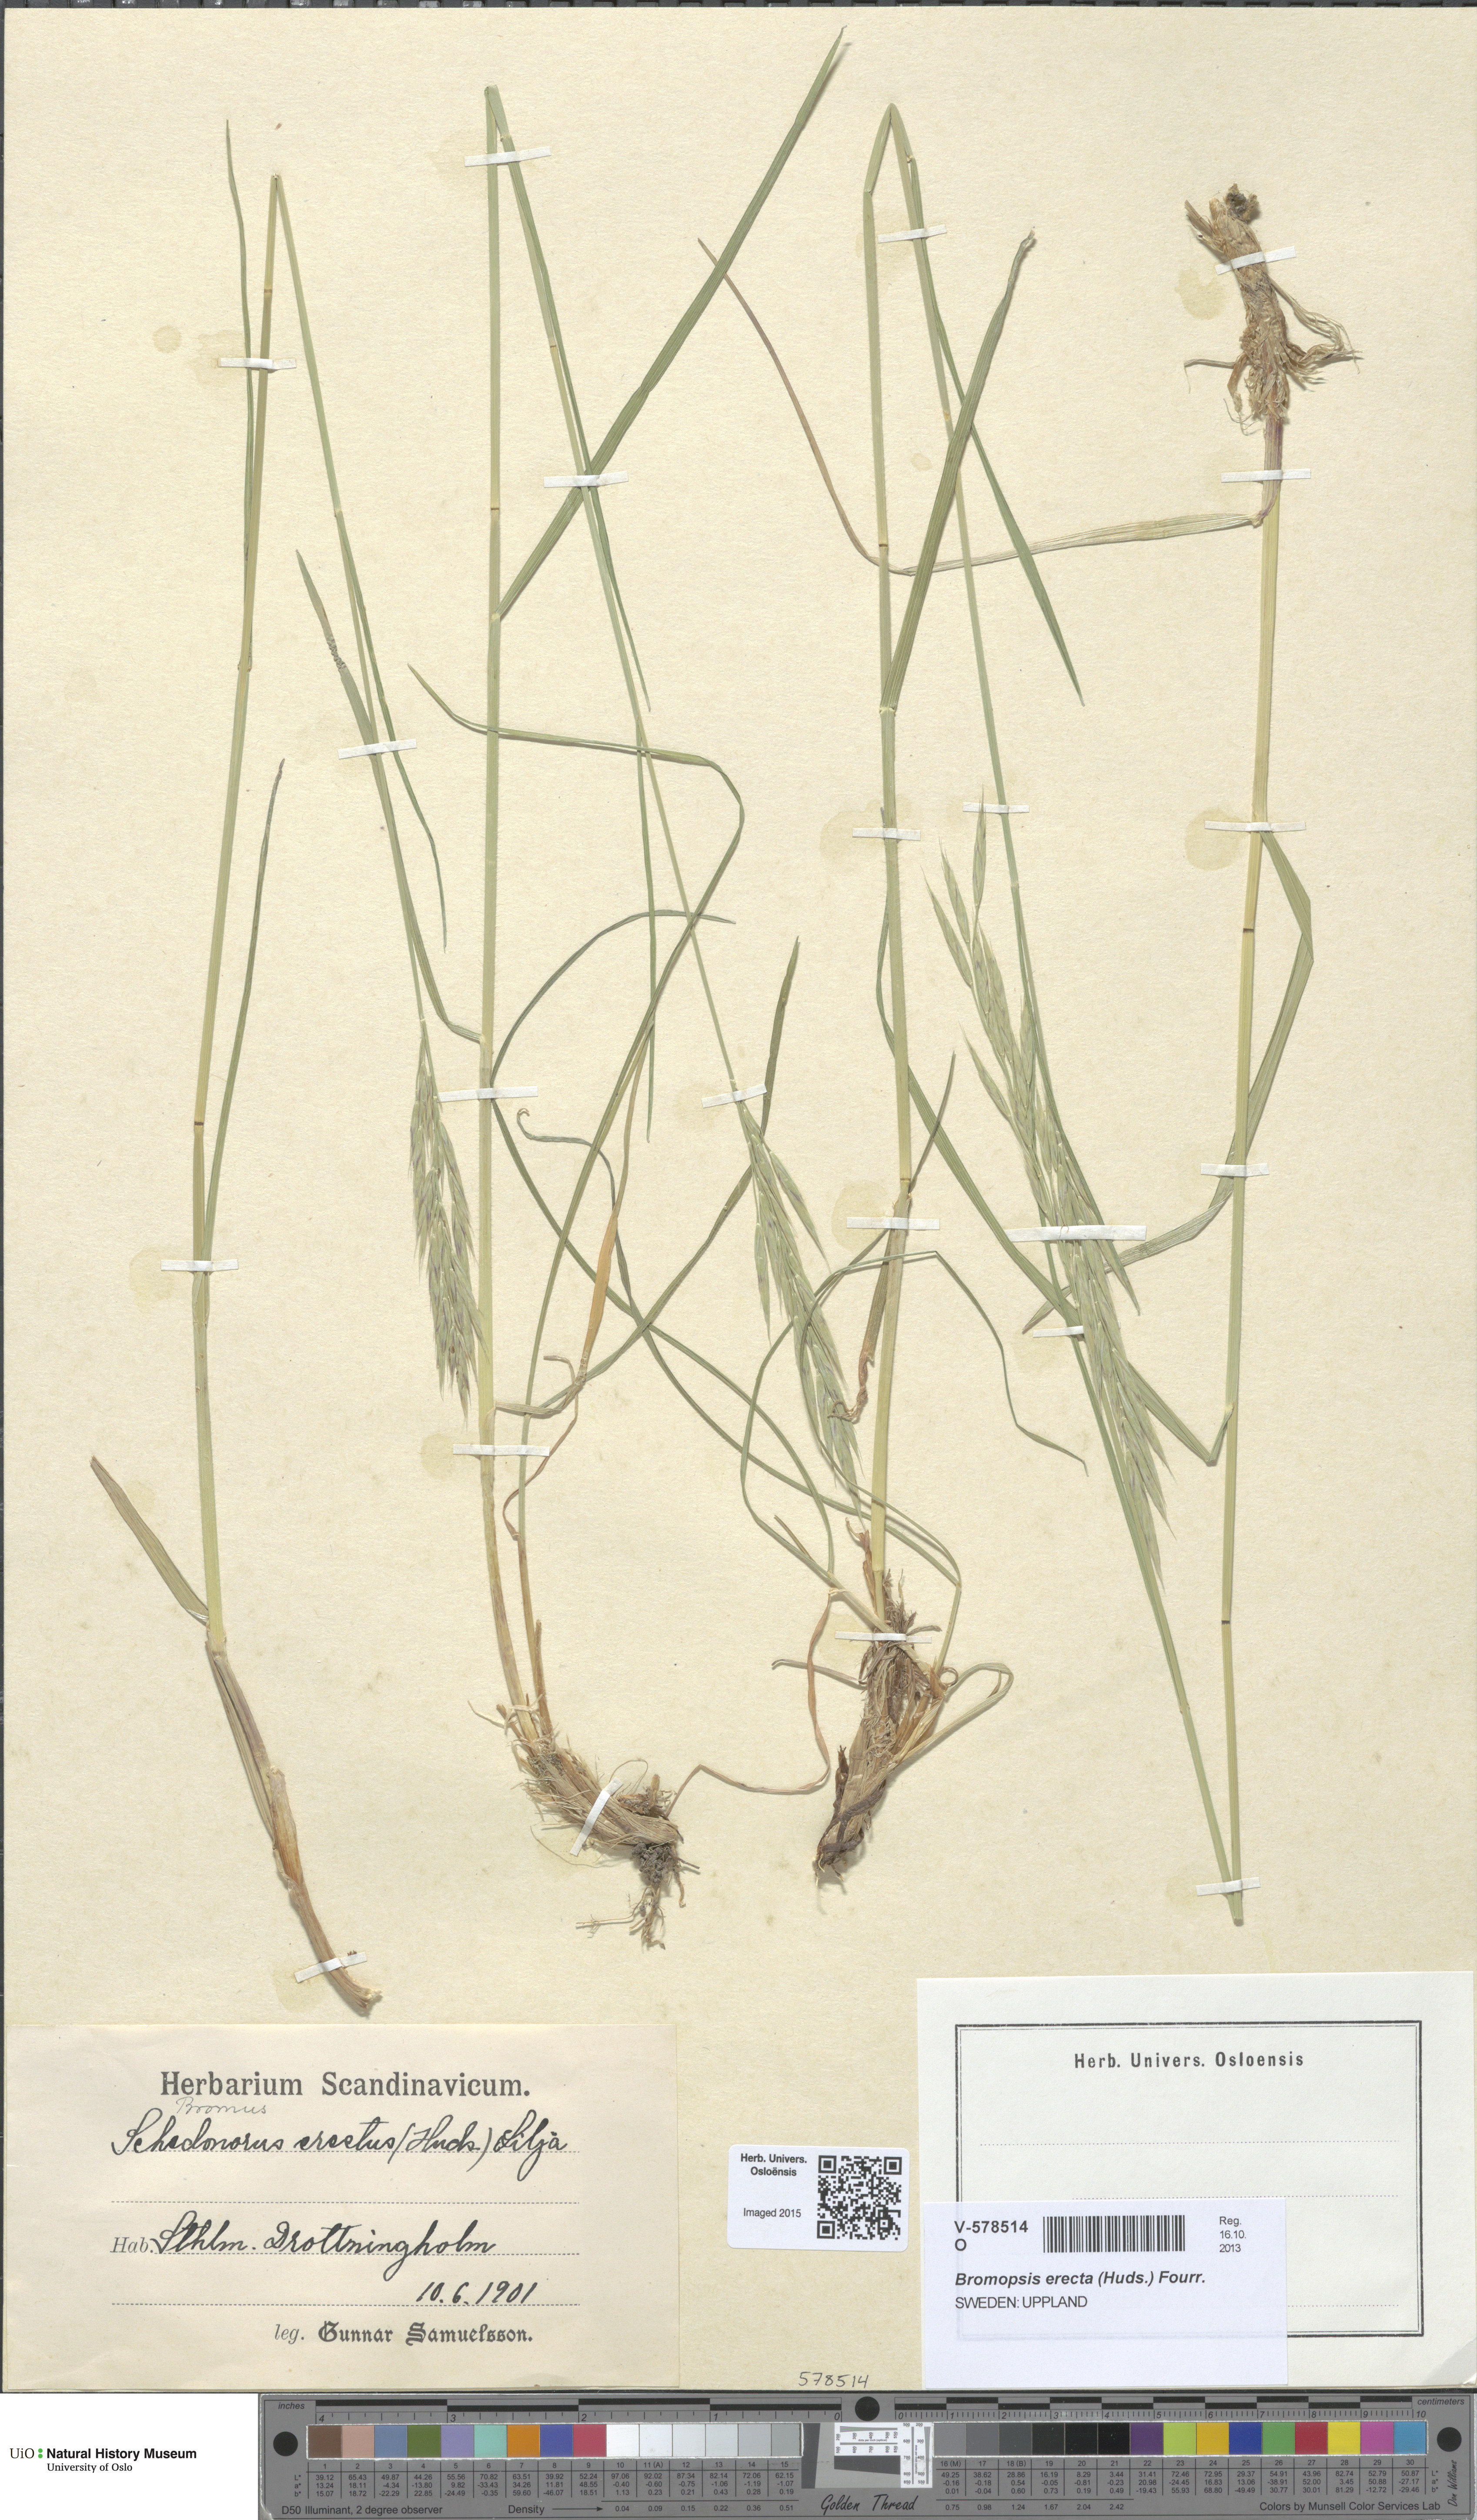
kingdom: Plantae
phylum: Tracheophyta
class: Liliopsida
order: Poales
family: Poaceae
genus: Bromus
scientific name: Bromus erectus
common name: Erect brome
